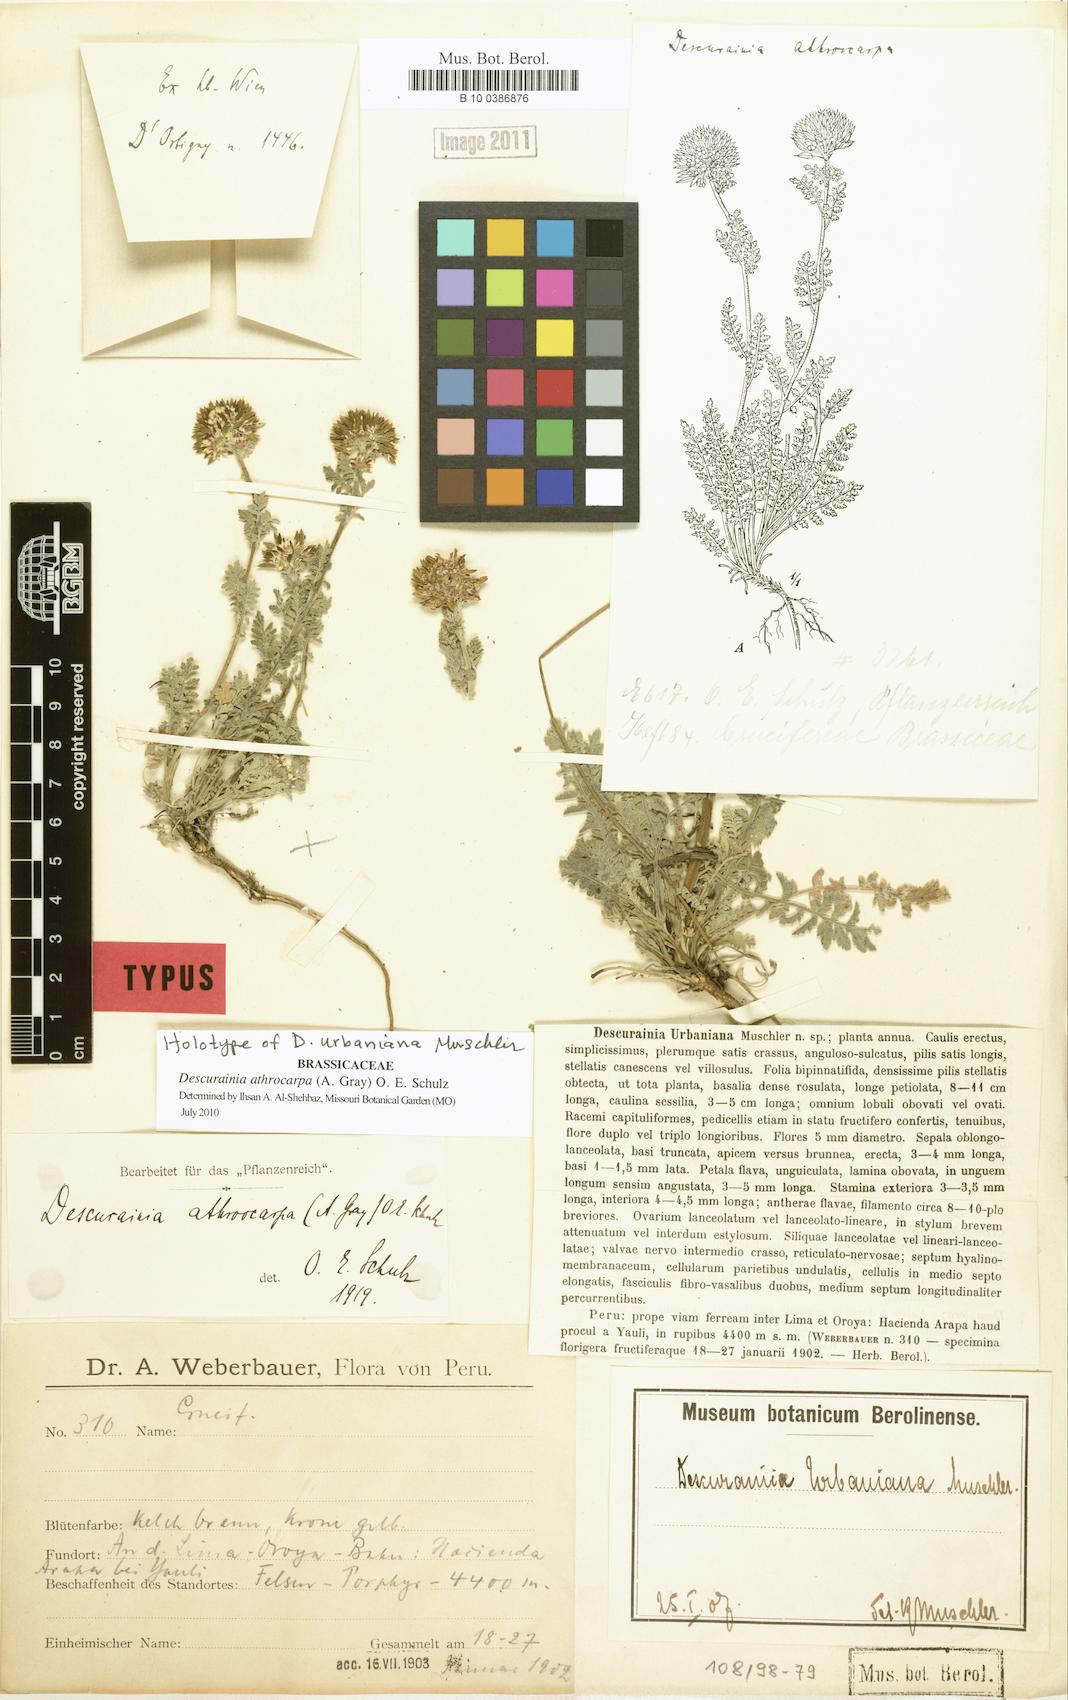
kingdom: Plantae
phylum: Tracheophyta
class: Magnoliopsida
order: Brassicales
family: Brassicaceae
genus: Descurainia
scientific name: Descurainia athrocarpa
